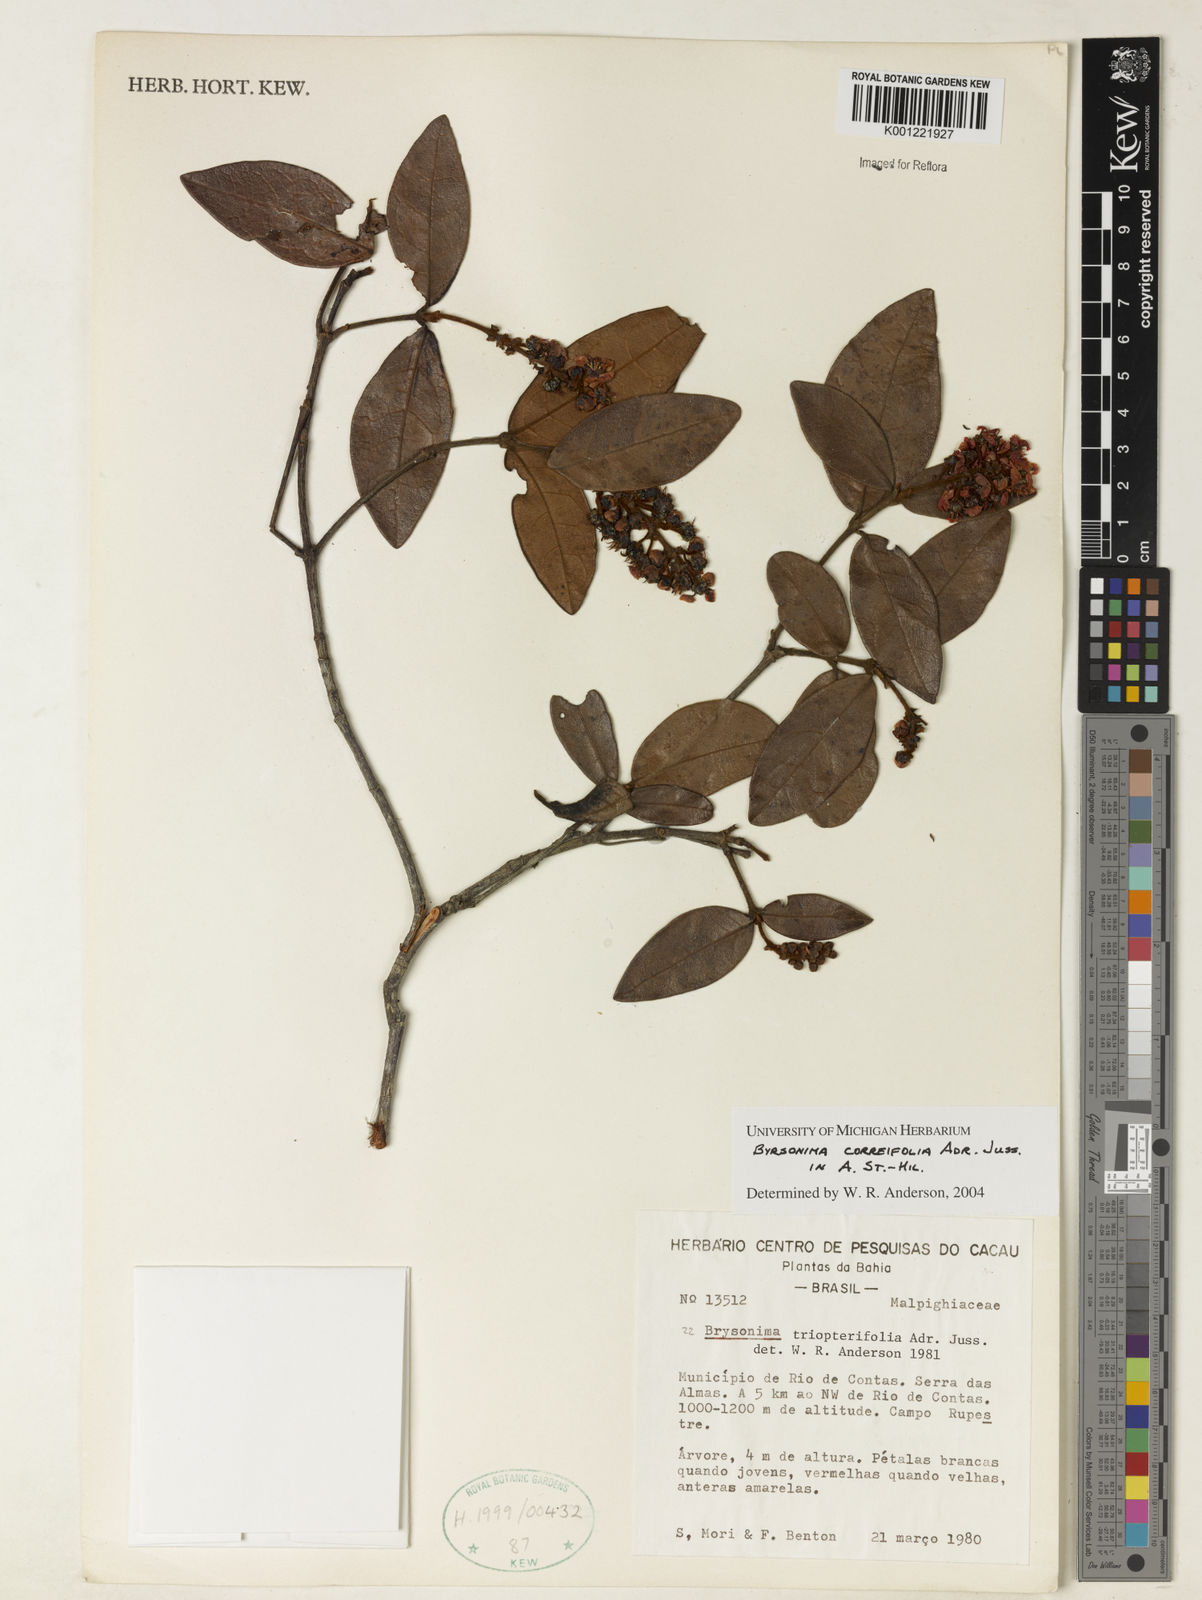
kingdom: Plantae
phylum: Tracheophyta
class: Magnoliopsida
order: Malpighiales
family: Malpighiaceae
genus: Byrsonima
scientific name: Byrsonima correifolia
